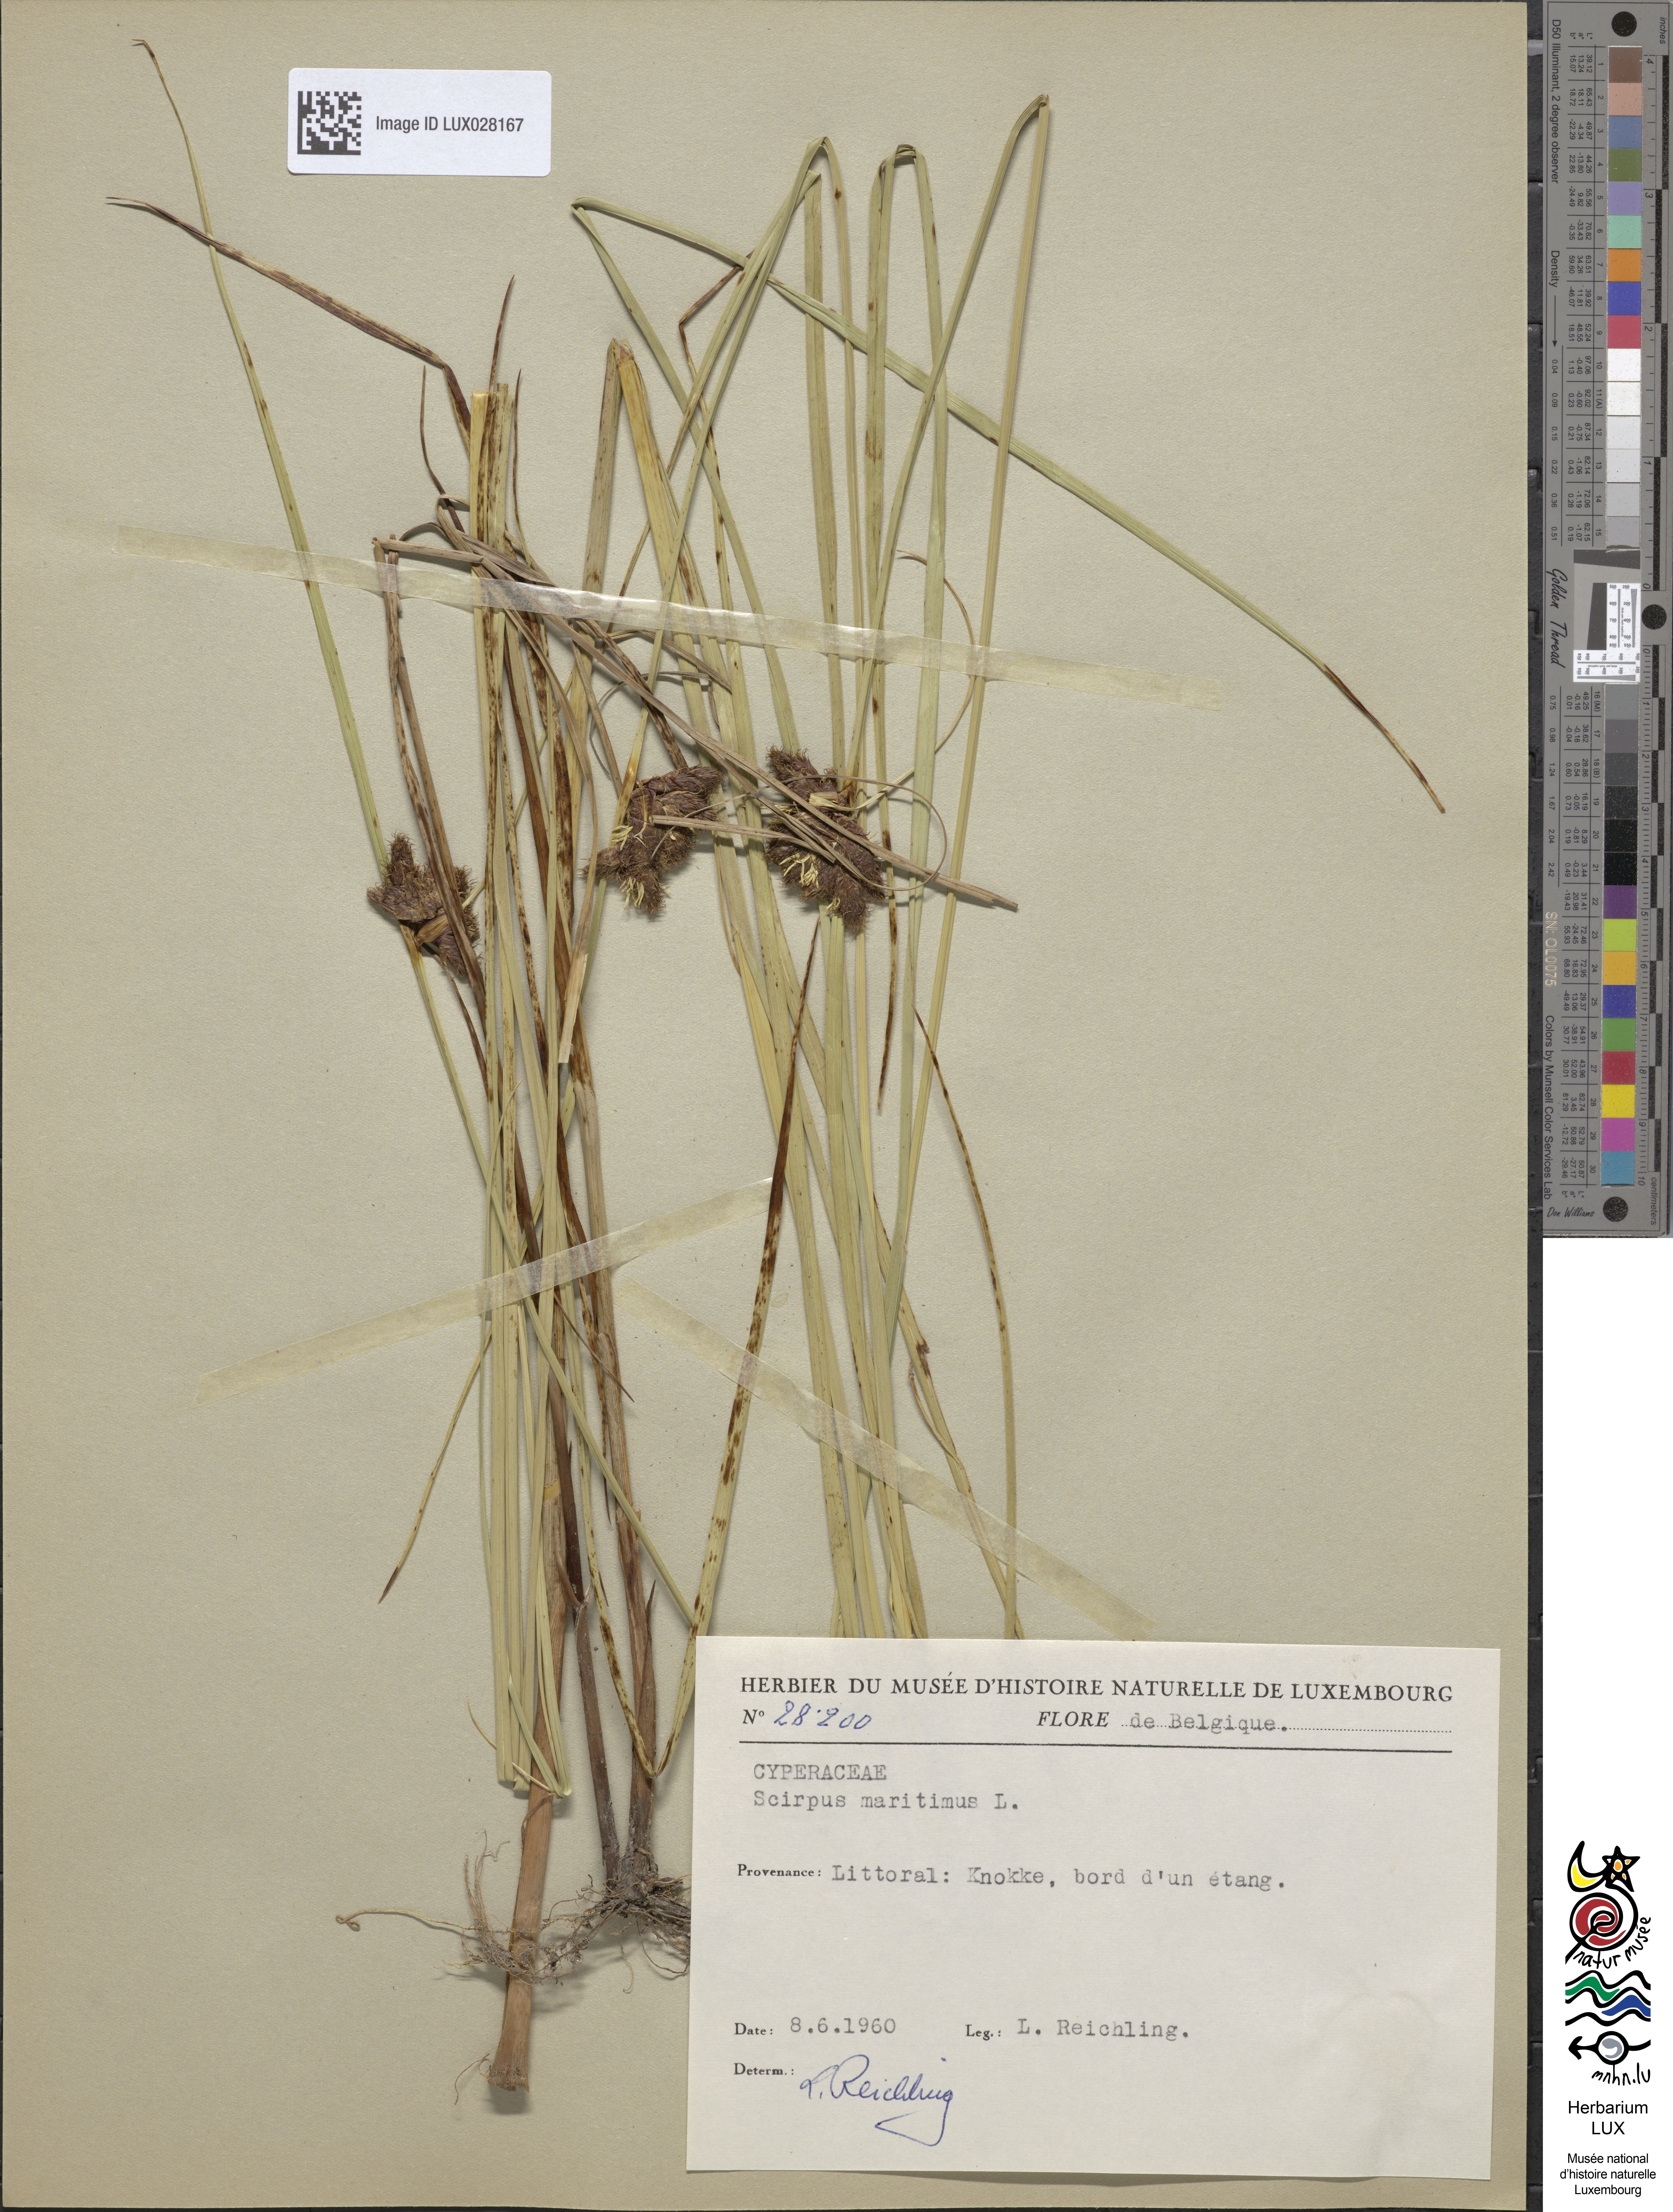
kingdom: Plantae
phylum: Tracheophyta
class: Liliopsida
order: Poales
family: Cyperaceae
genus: Bolboschoenus
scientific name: Bolboschoenus maritimus
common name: Sea club-rush
